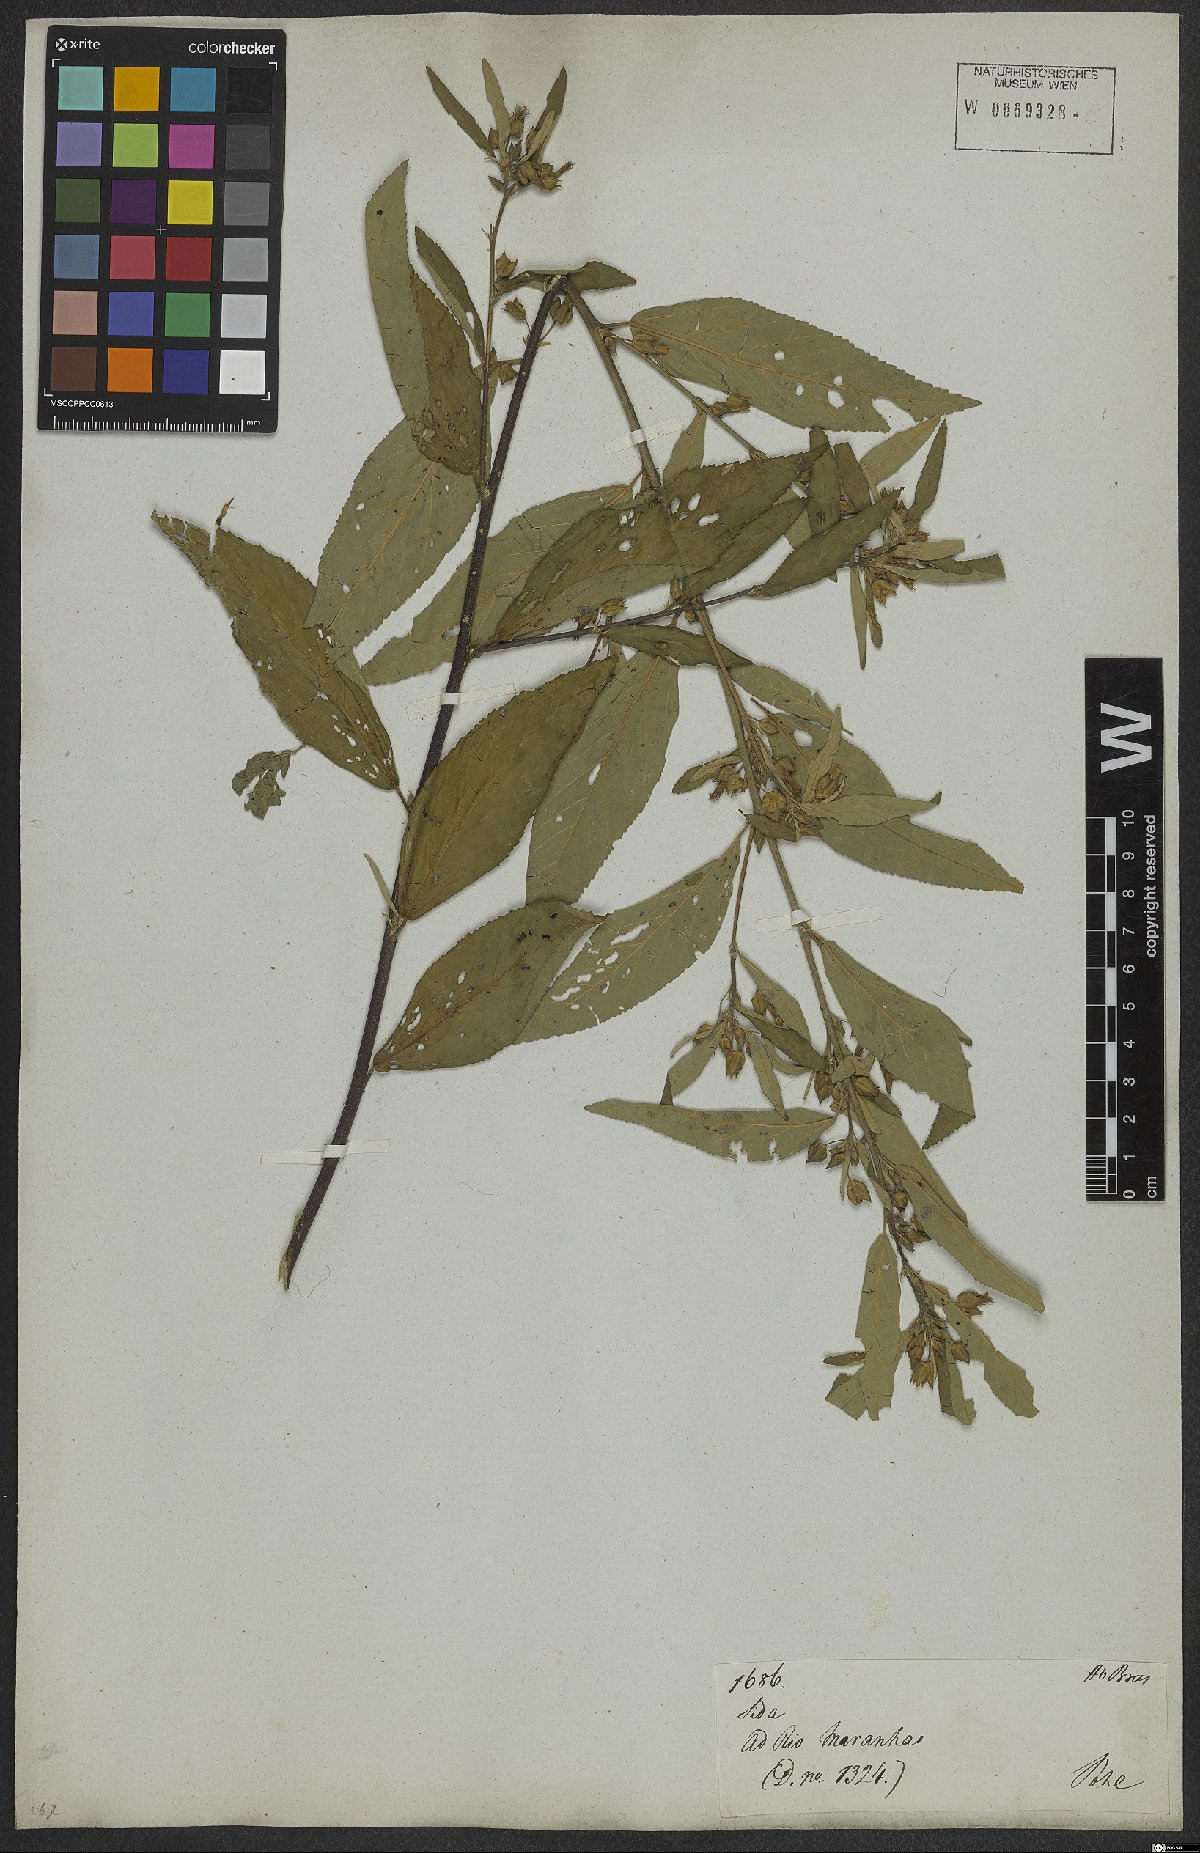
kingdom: Plantae
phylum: Tracheophyta
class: Magnoliopsida
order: Malvales
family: Malvaceae
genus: Sida
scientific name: Sida rhombifolia
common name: Queensland-hemp
